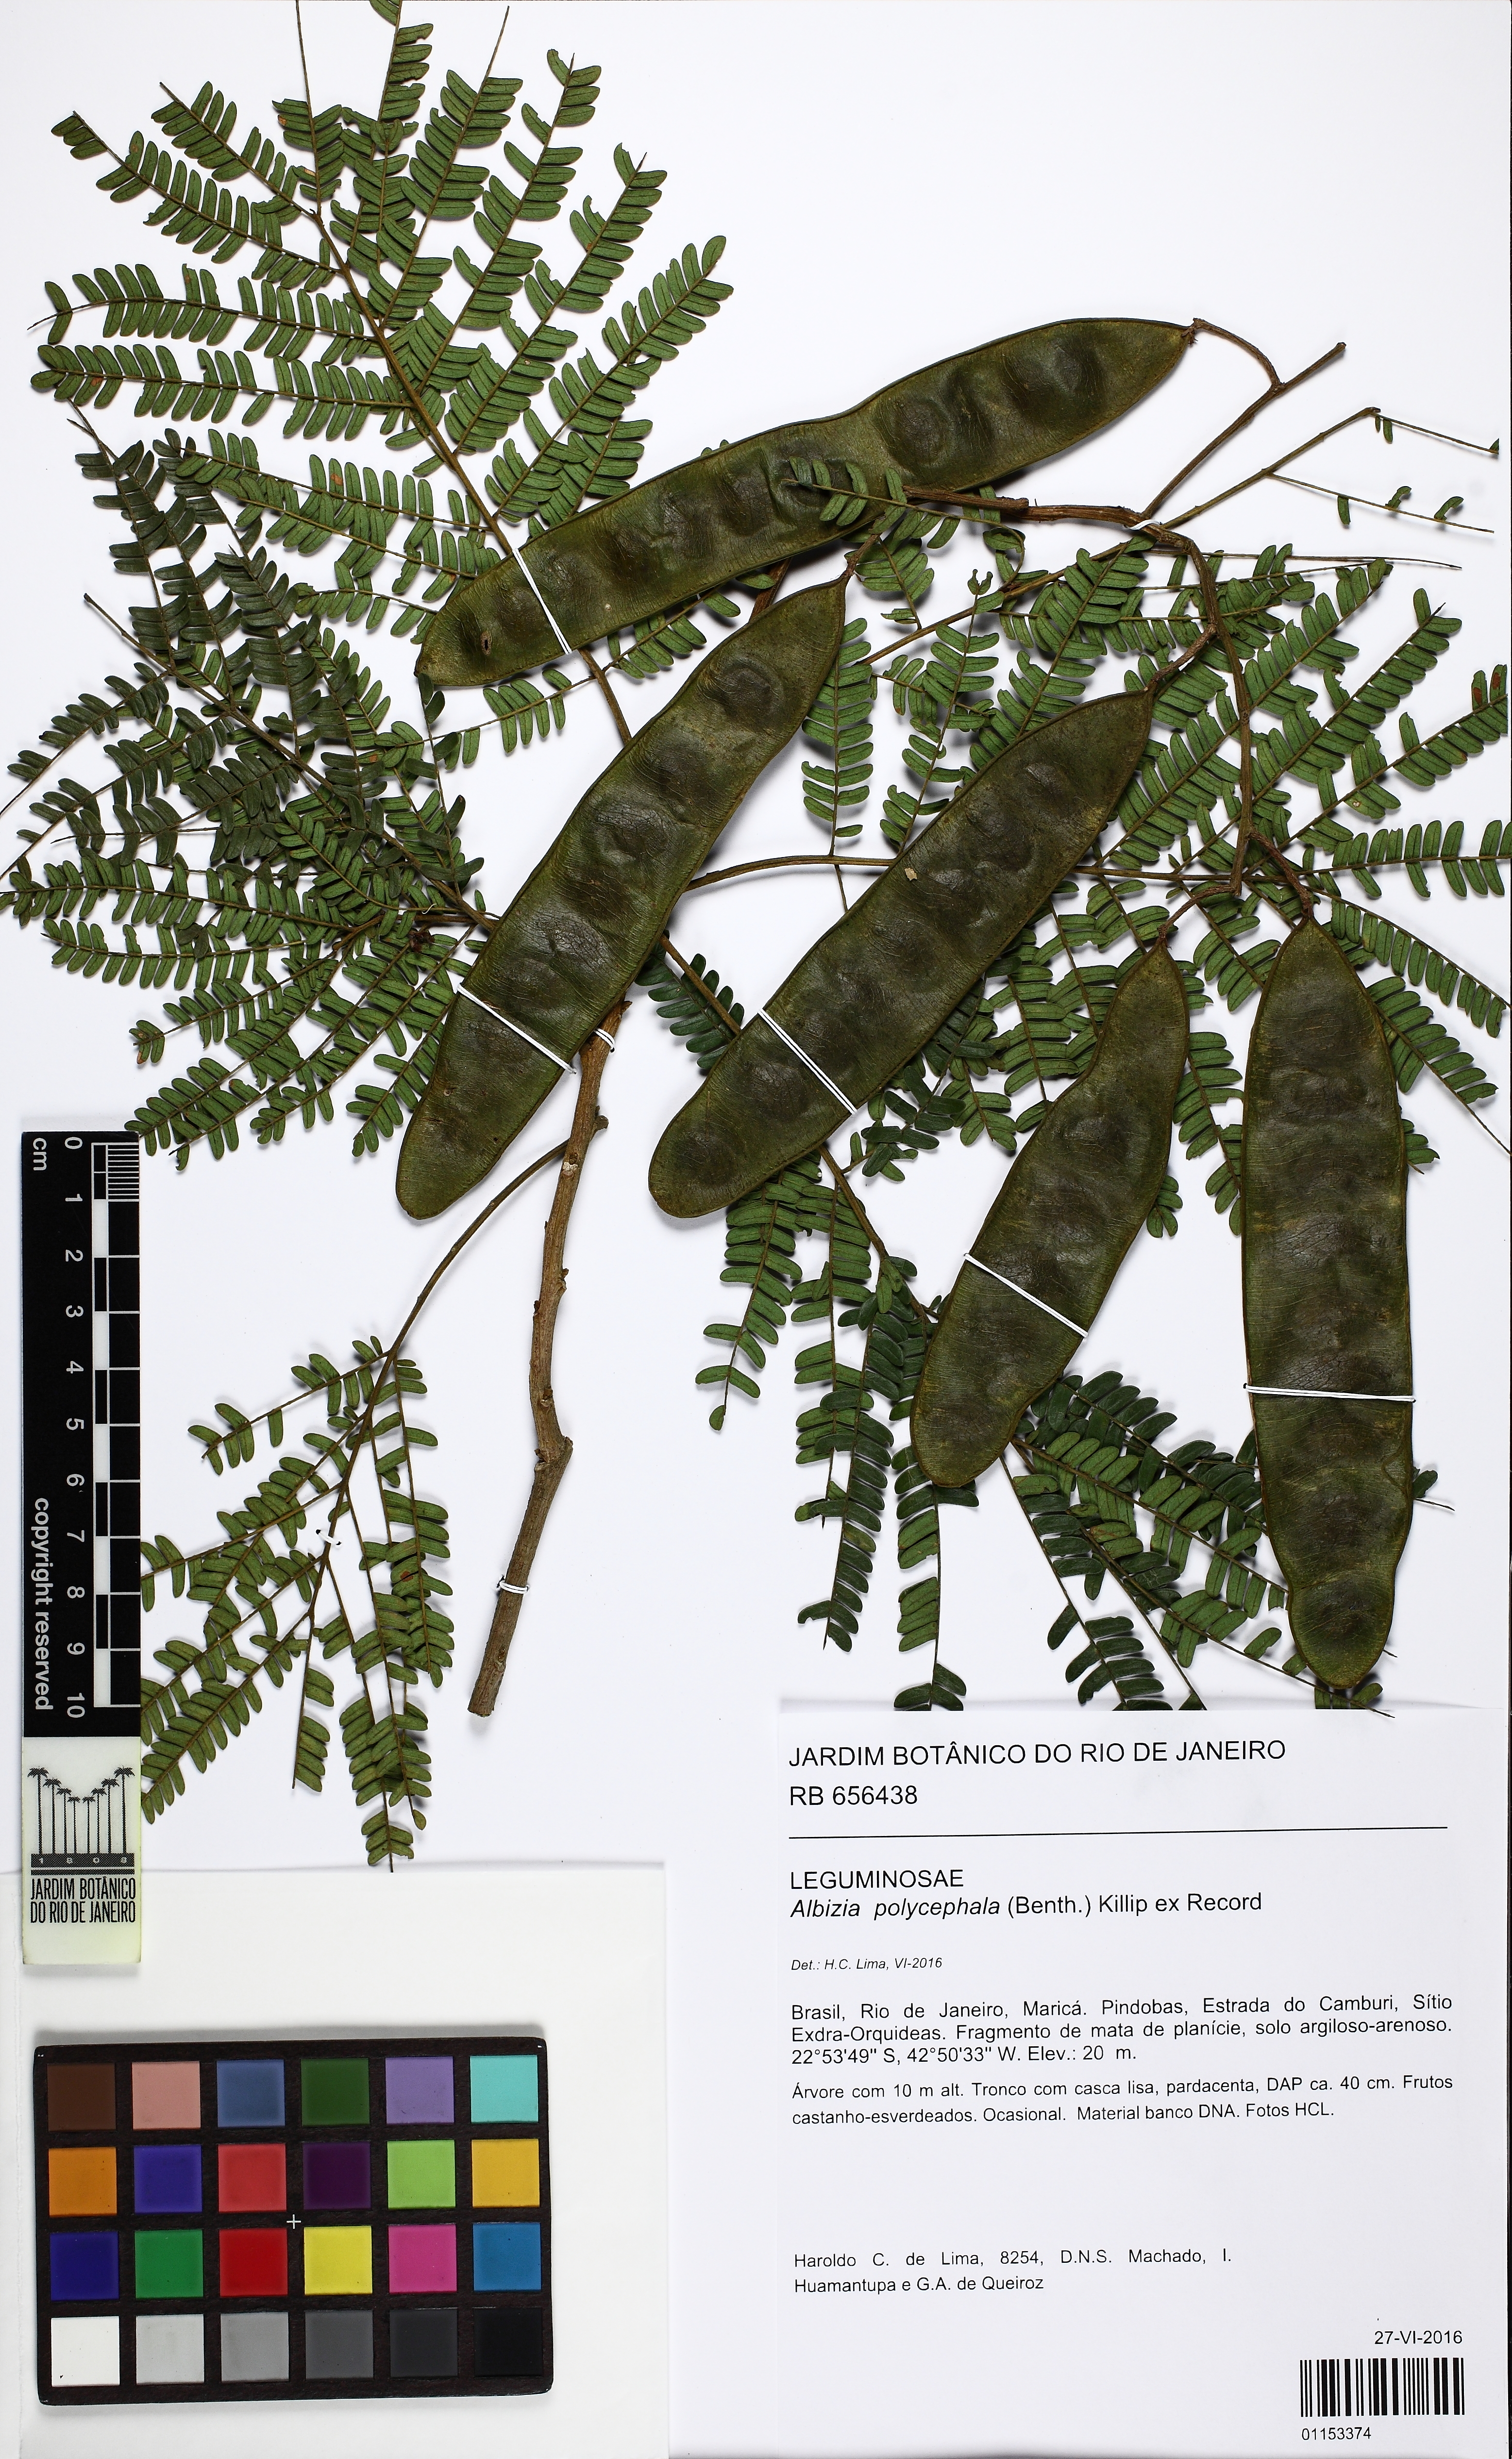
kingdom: Plantae
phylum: Tracheophyta
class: Magnoliopsida
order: Fabales
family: Fabaceae
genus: Albizia
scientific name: Albizia polycephala
